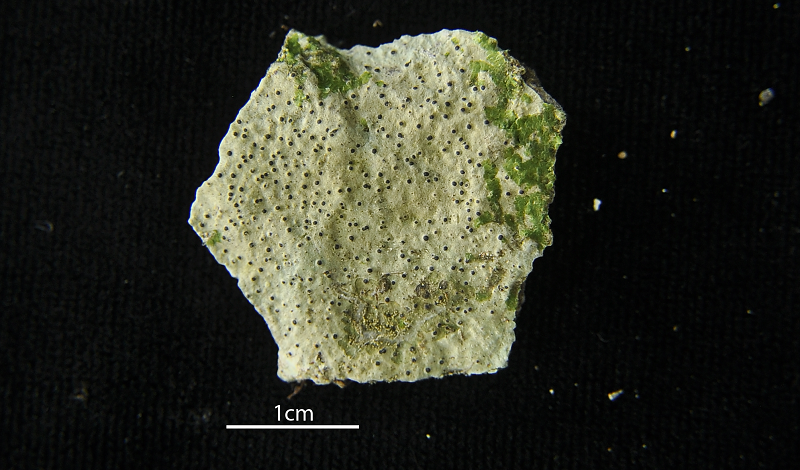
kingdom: Fungi
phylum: Ascomycota
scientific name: Ascomycota
